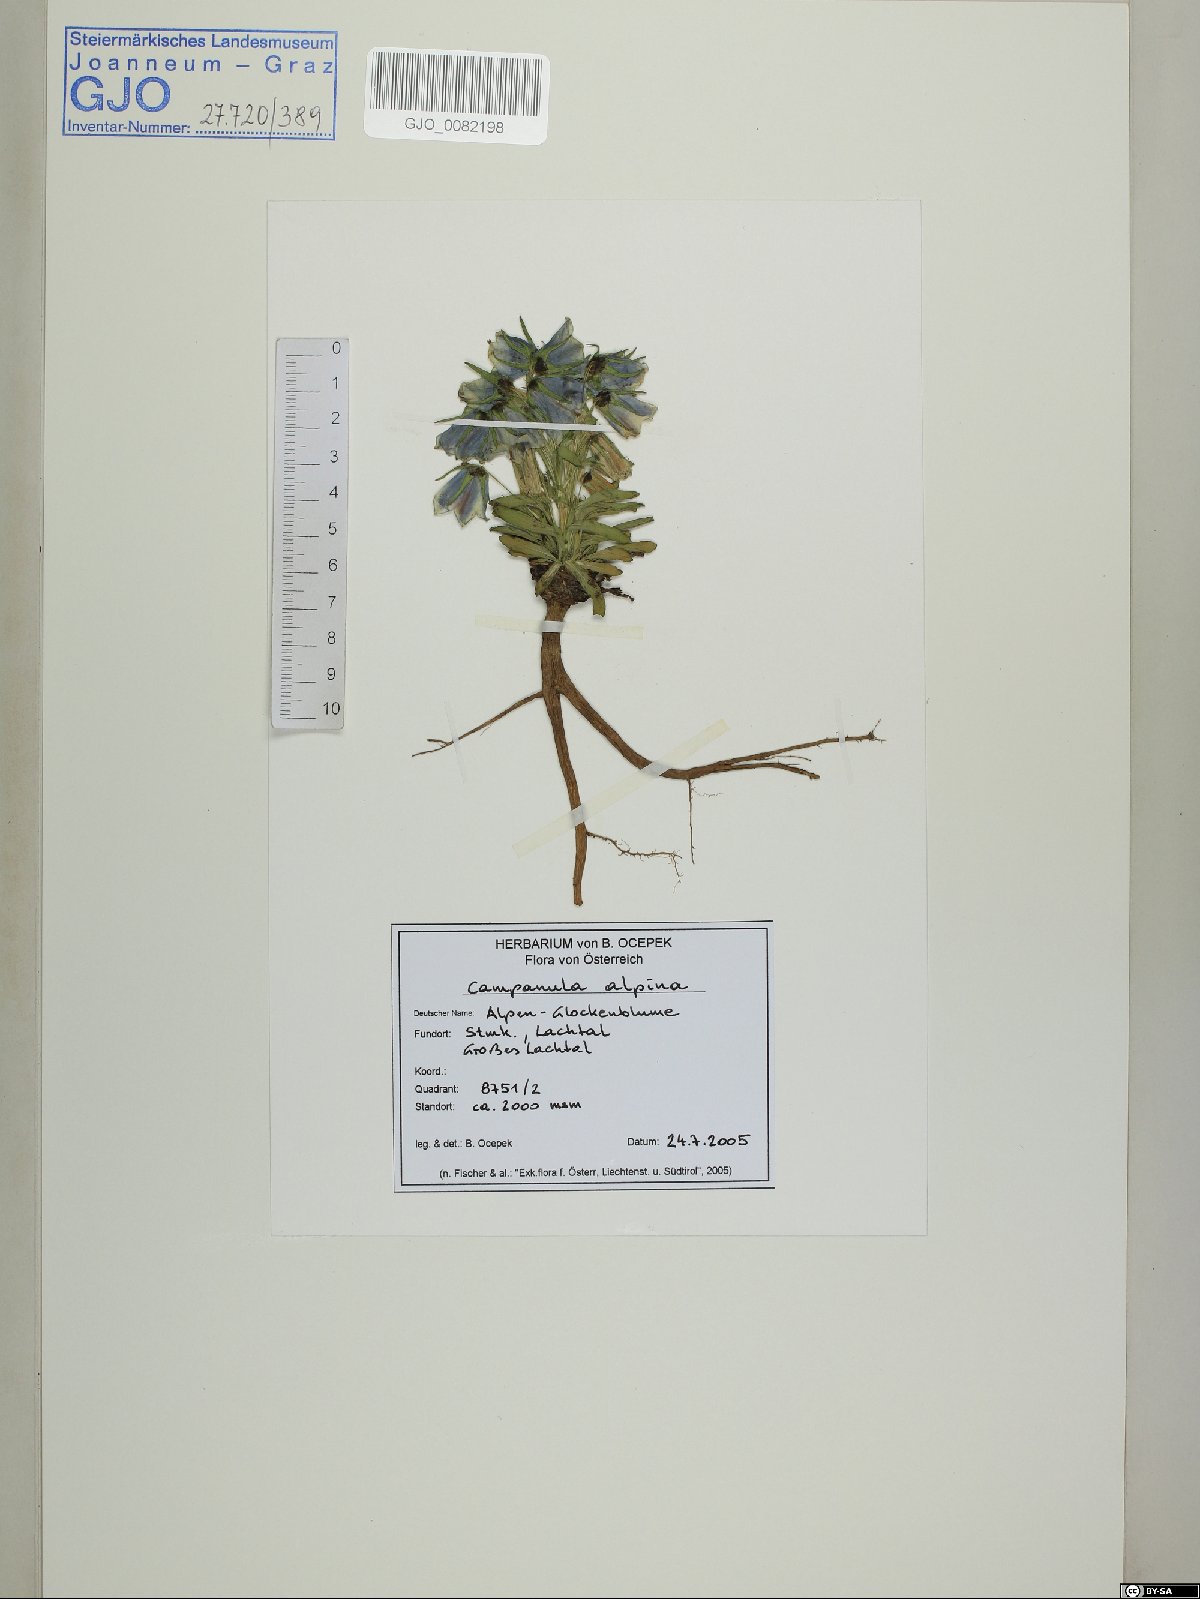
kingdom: Plantae
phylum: Tracheophyta
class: Magnoliopsida
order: Asterales
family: Campanulaceae
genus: Campanula
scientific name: Campanula alpina
